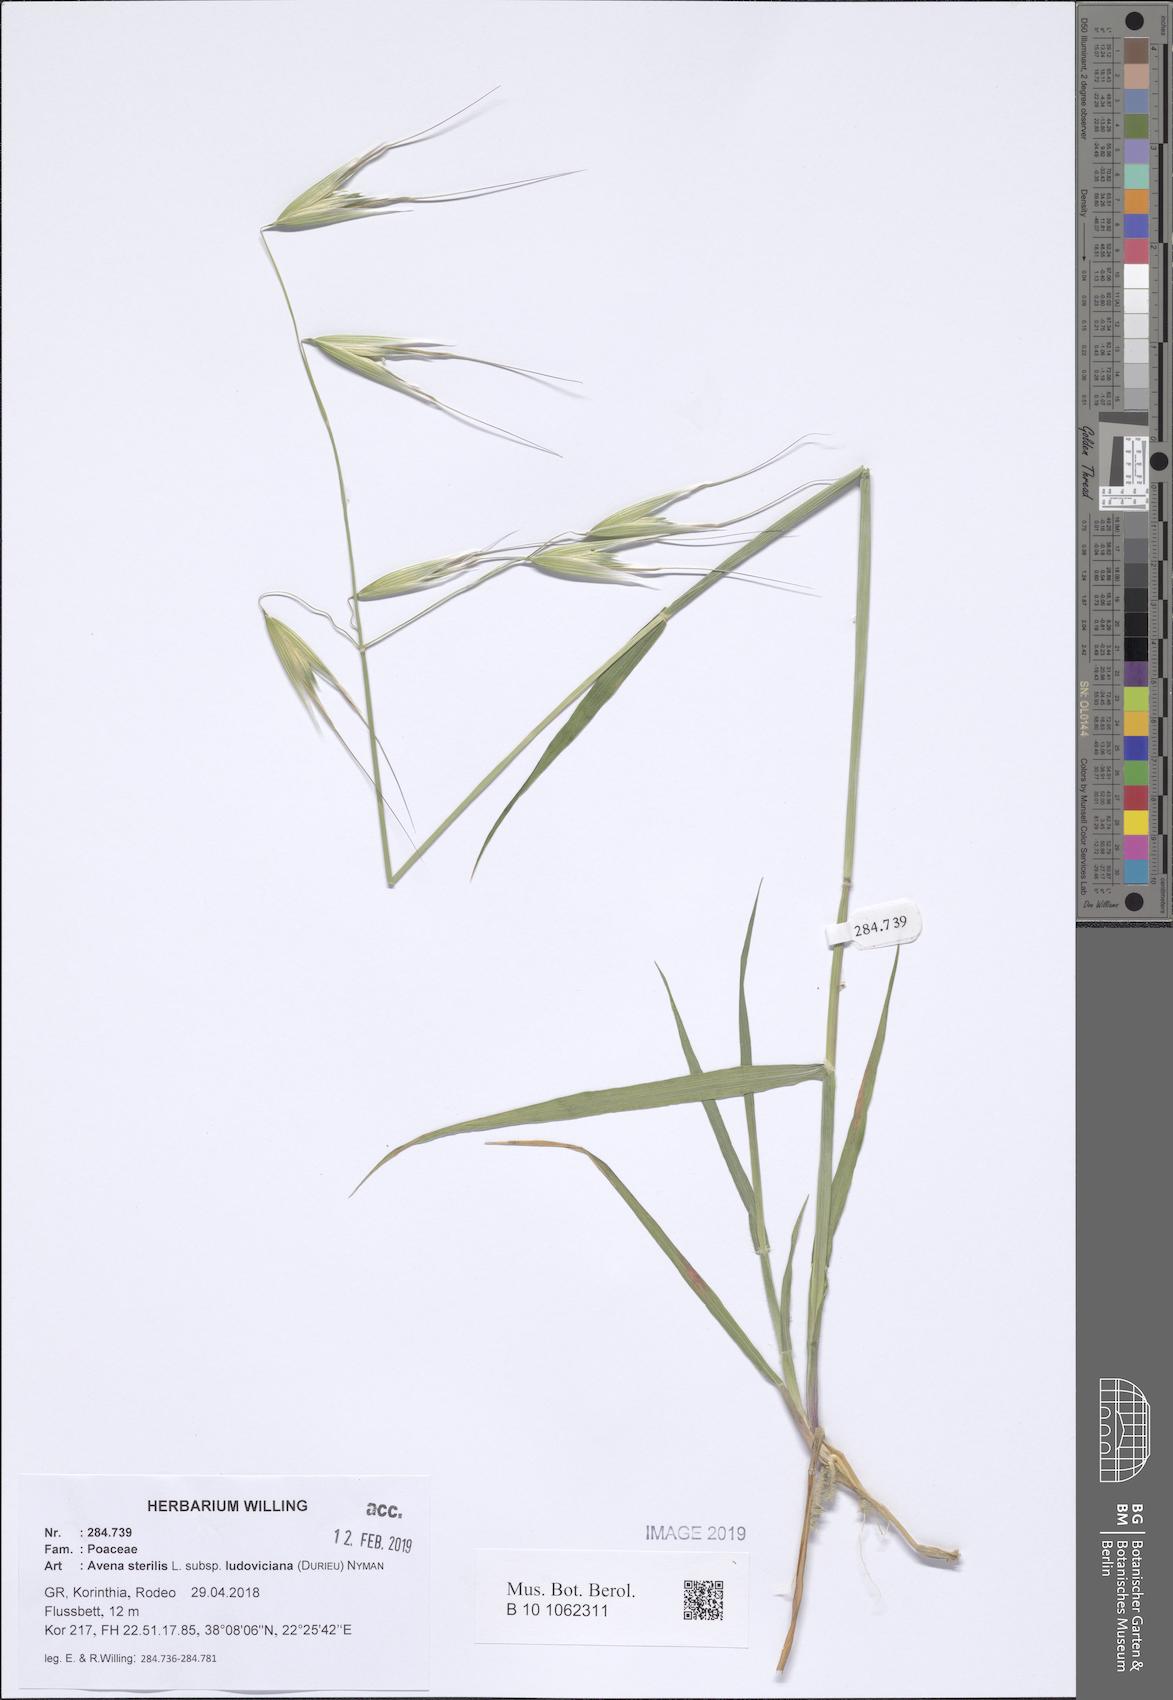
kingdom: Plantae
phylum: Tracheophyta
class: Liliopsida
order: Poales
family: Poaceae
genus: Avena
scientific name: Avena sterilis
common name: Animated oat
